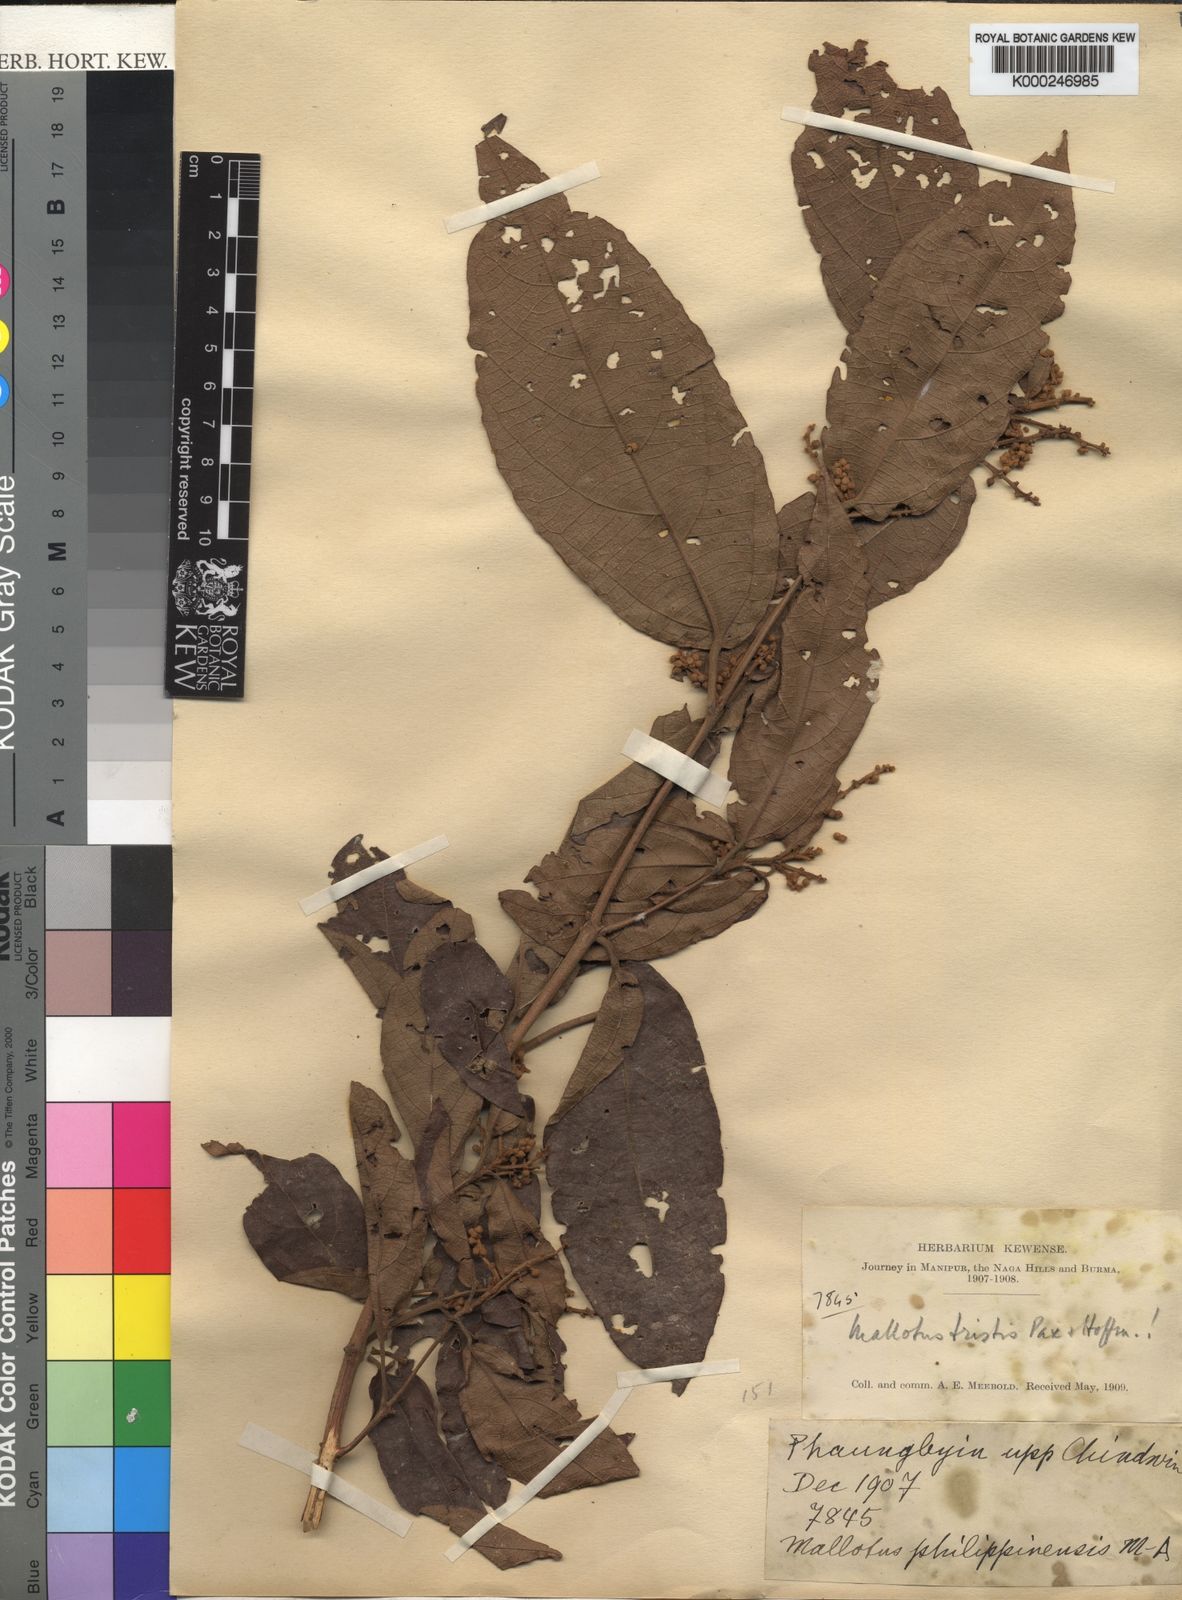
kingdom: Plantae
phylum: Tracheophyta
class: Magnoliopsida
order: Malpighiales
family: Euphorbiaceae
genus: Mallotus
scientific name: Mallotus glabriusculus
